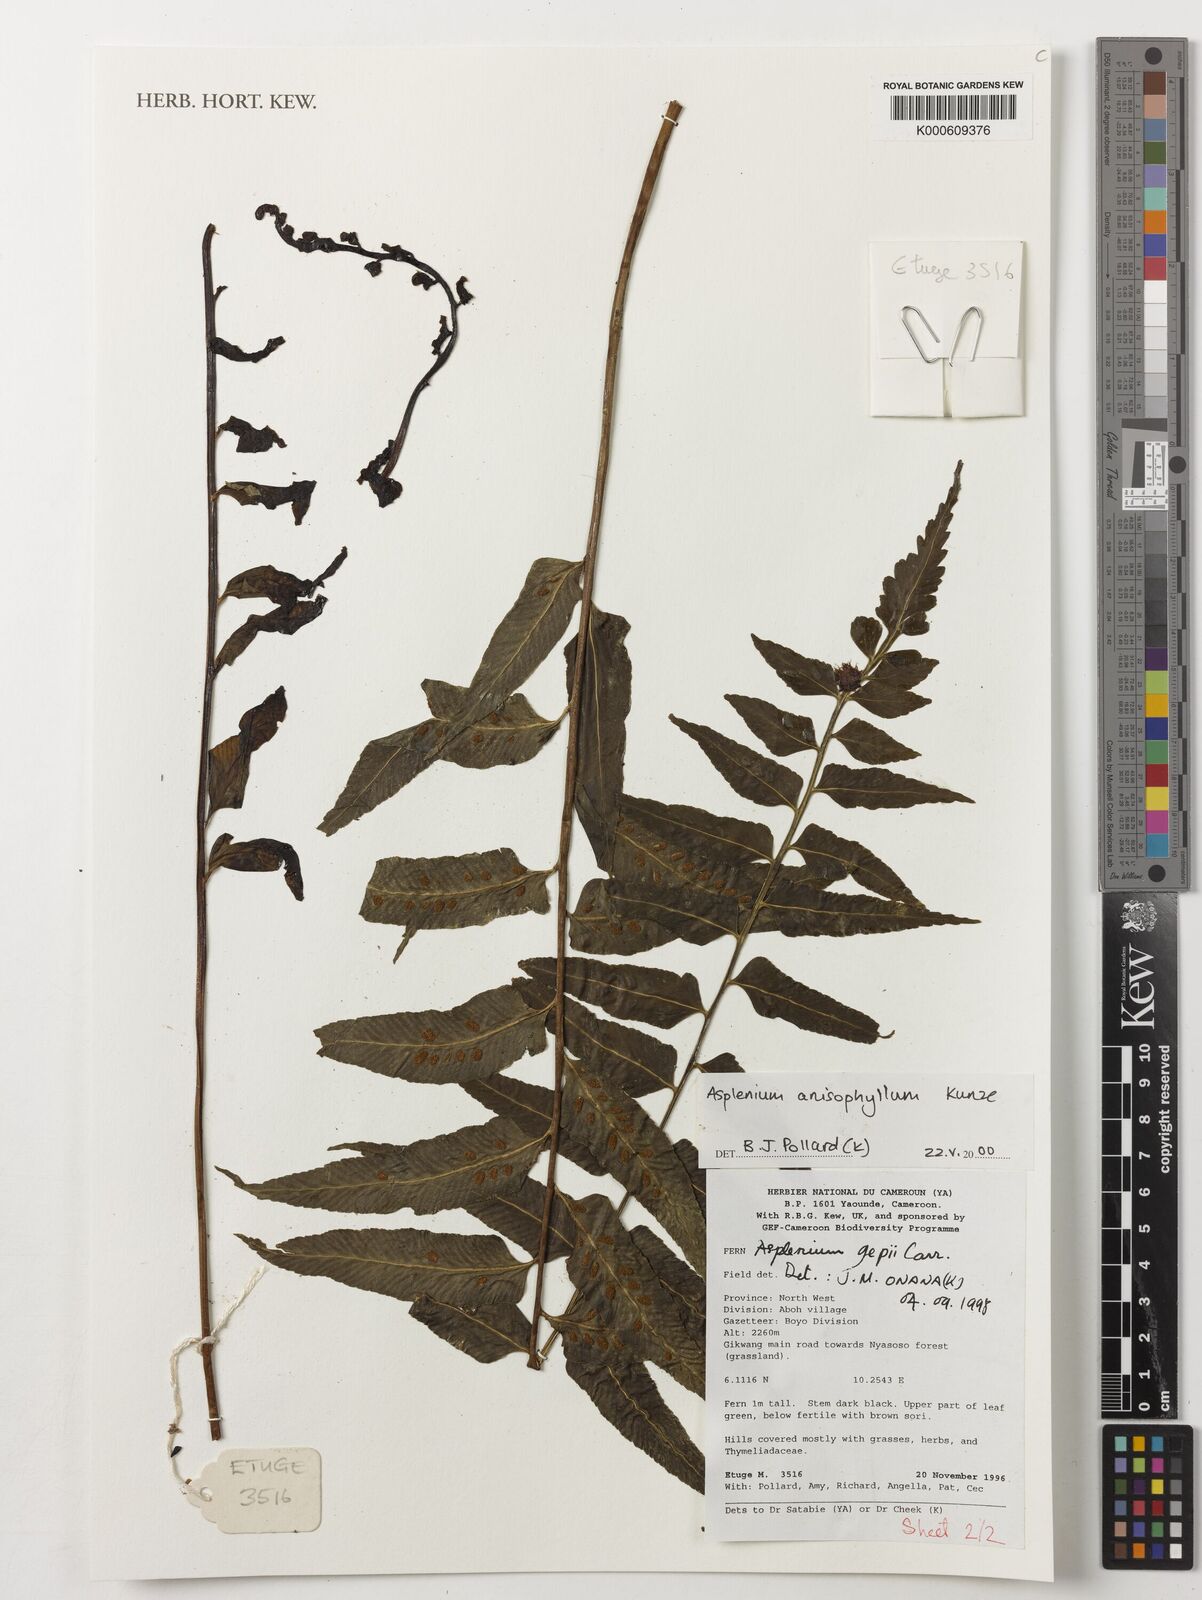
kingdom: Plantae
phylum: Tracheophyta
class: Polypodiopsida
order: Polypodiales
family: Aspleniaceae
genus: Asplenium
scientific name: Asplenium anisophyllum
